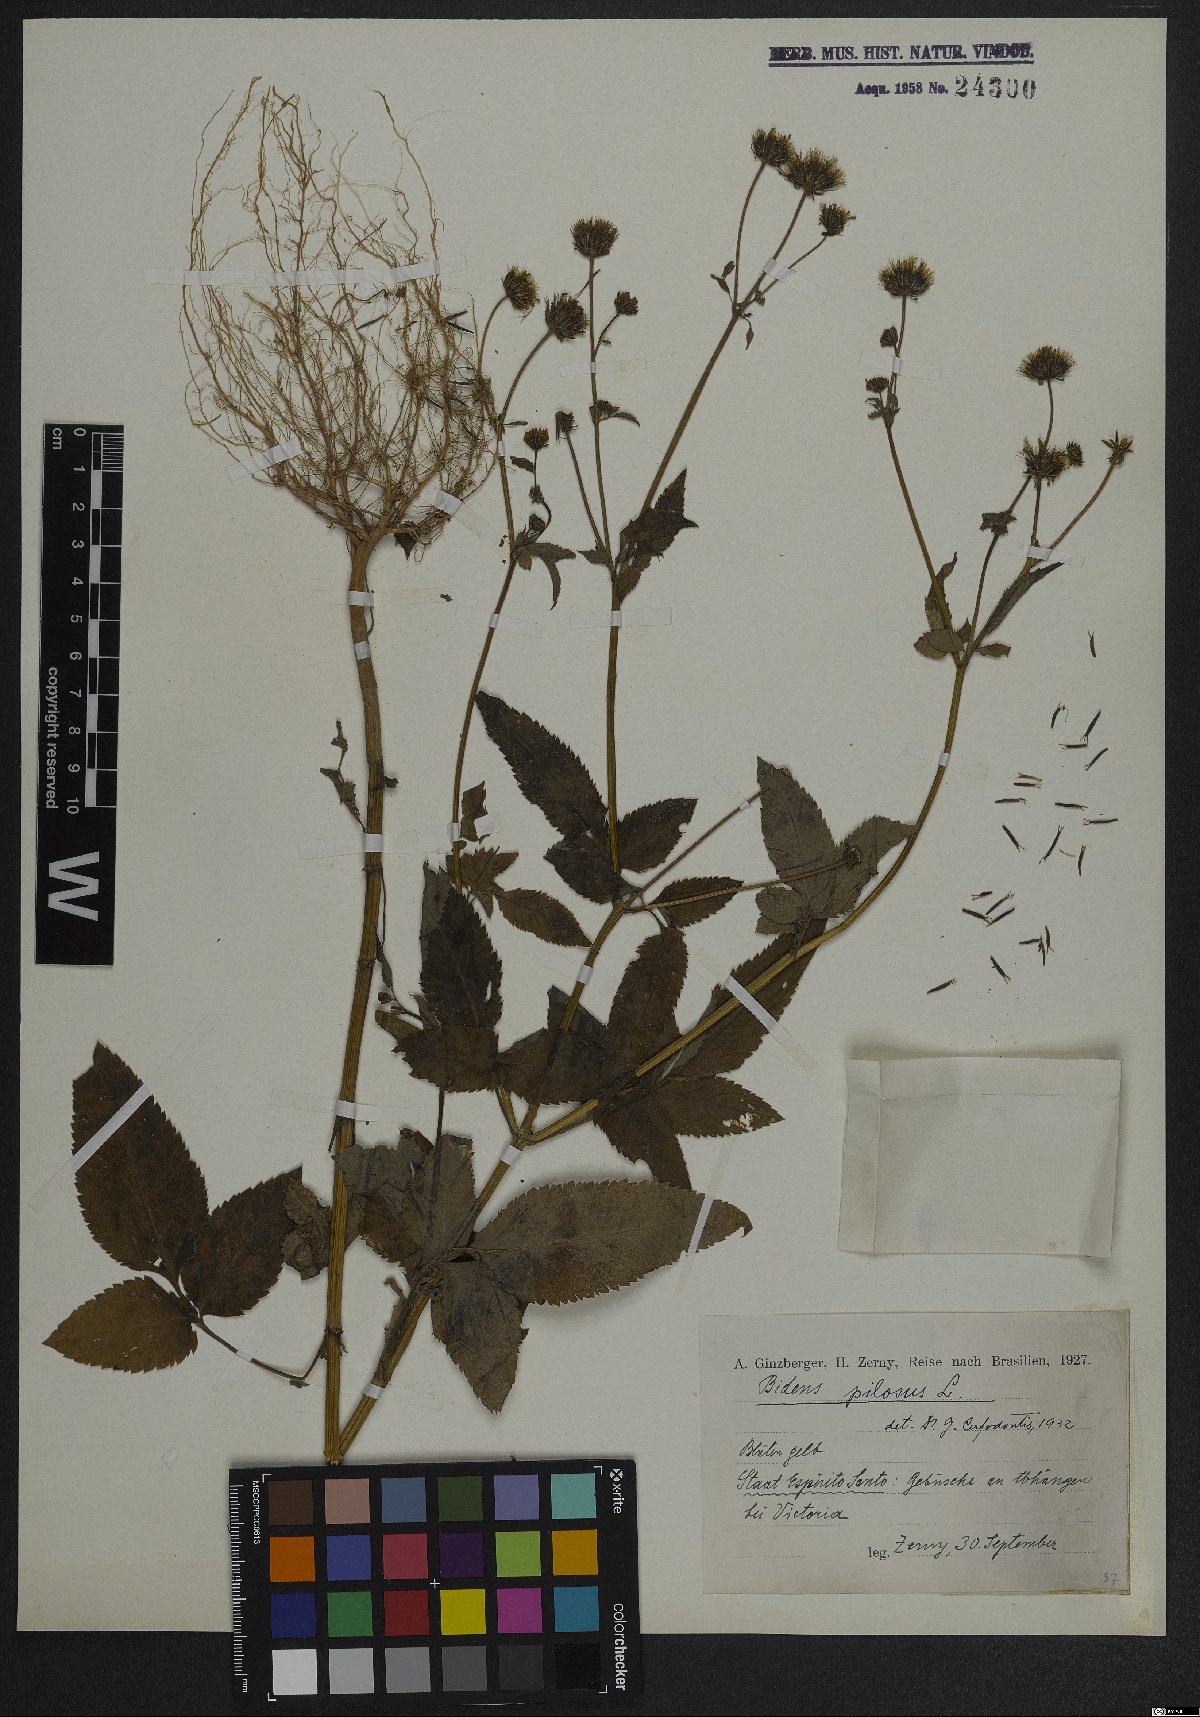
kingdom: Plantae
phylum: Tracheophyta
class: Magnoliopsida
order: Asterales
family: Asteraceae
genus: Bidens
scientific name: Bidens pilosa
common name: Black-jack
